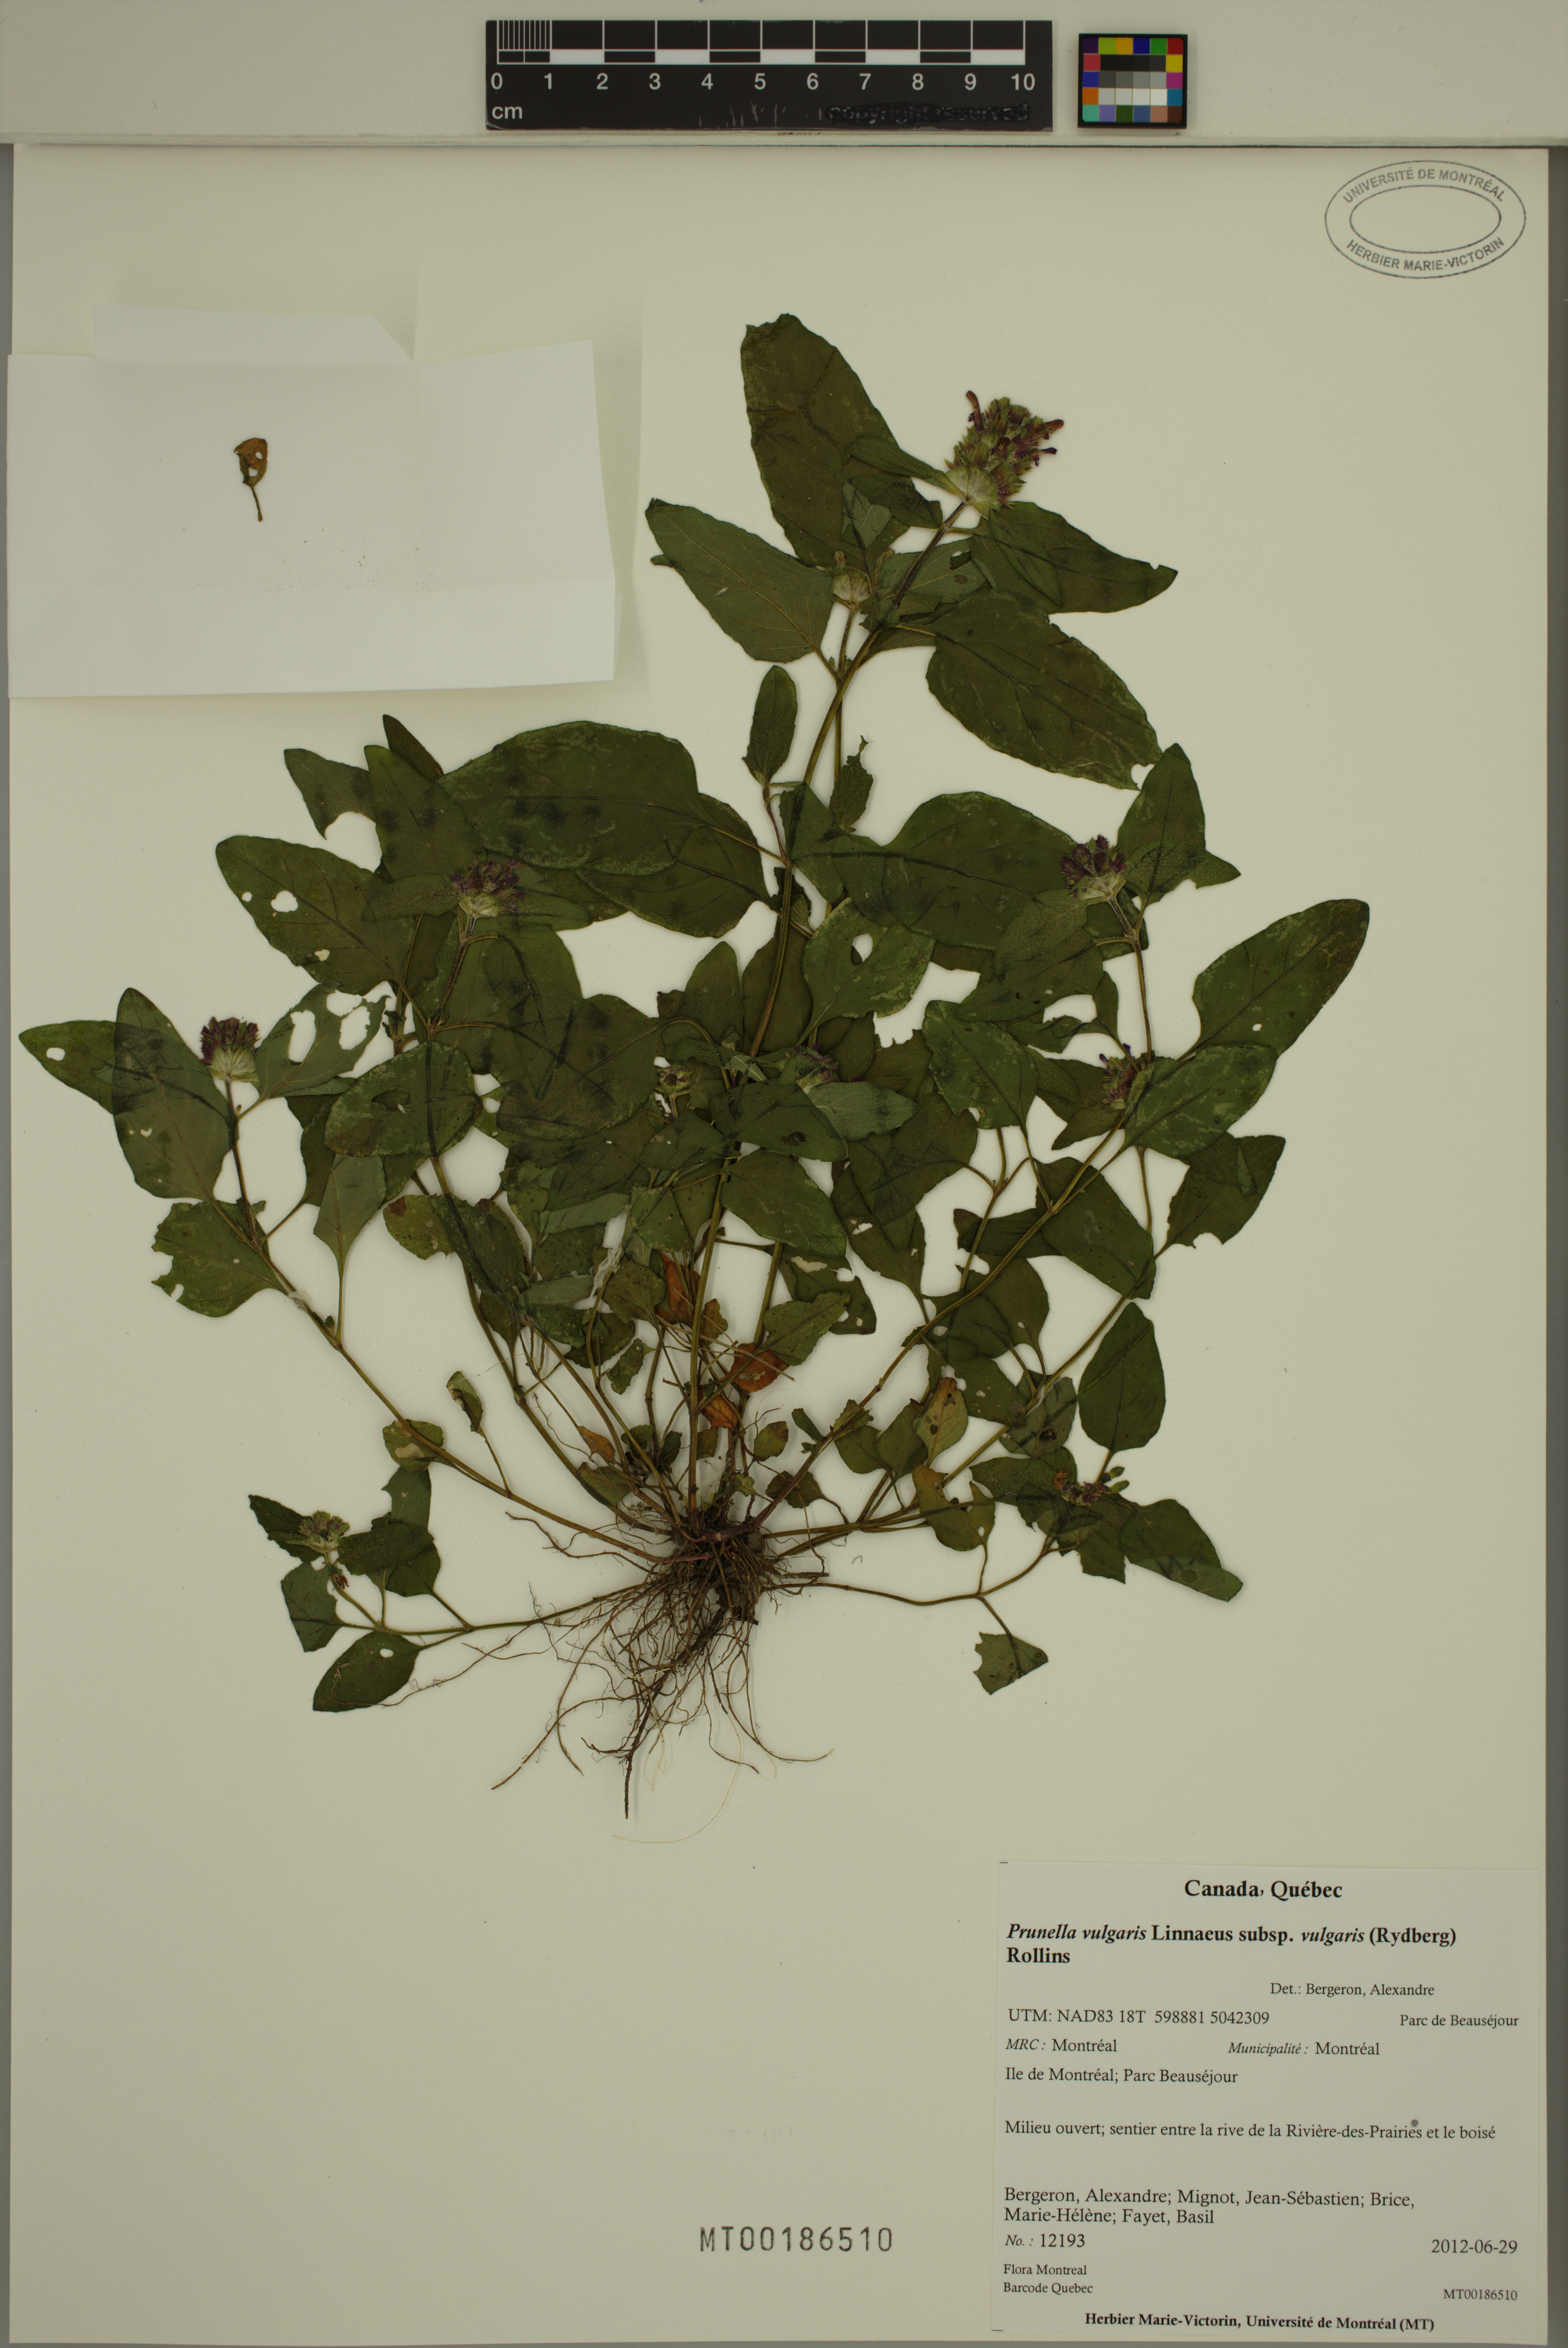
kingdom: Plantae
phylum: Tracheophyta
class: Magnoliopsida
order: Lamiales
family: Lamiaceae
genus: Prunella
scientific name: Prunella vulgaris
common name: Heal-all
